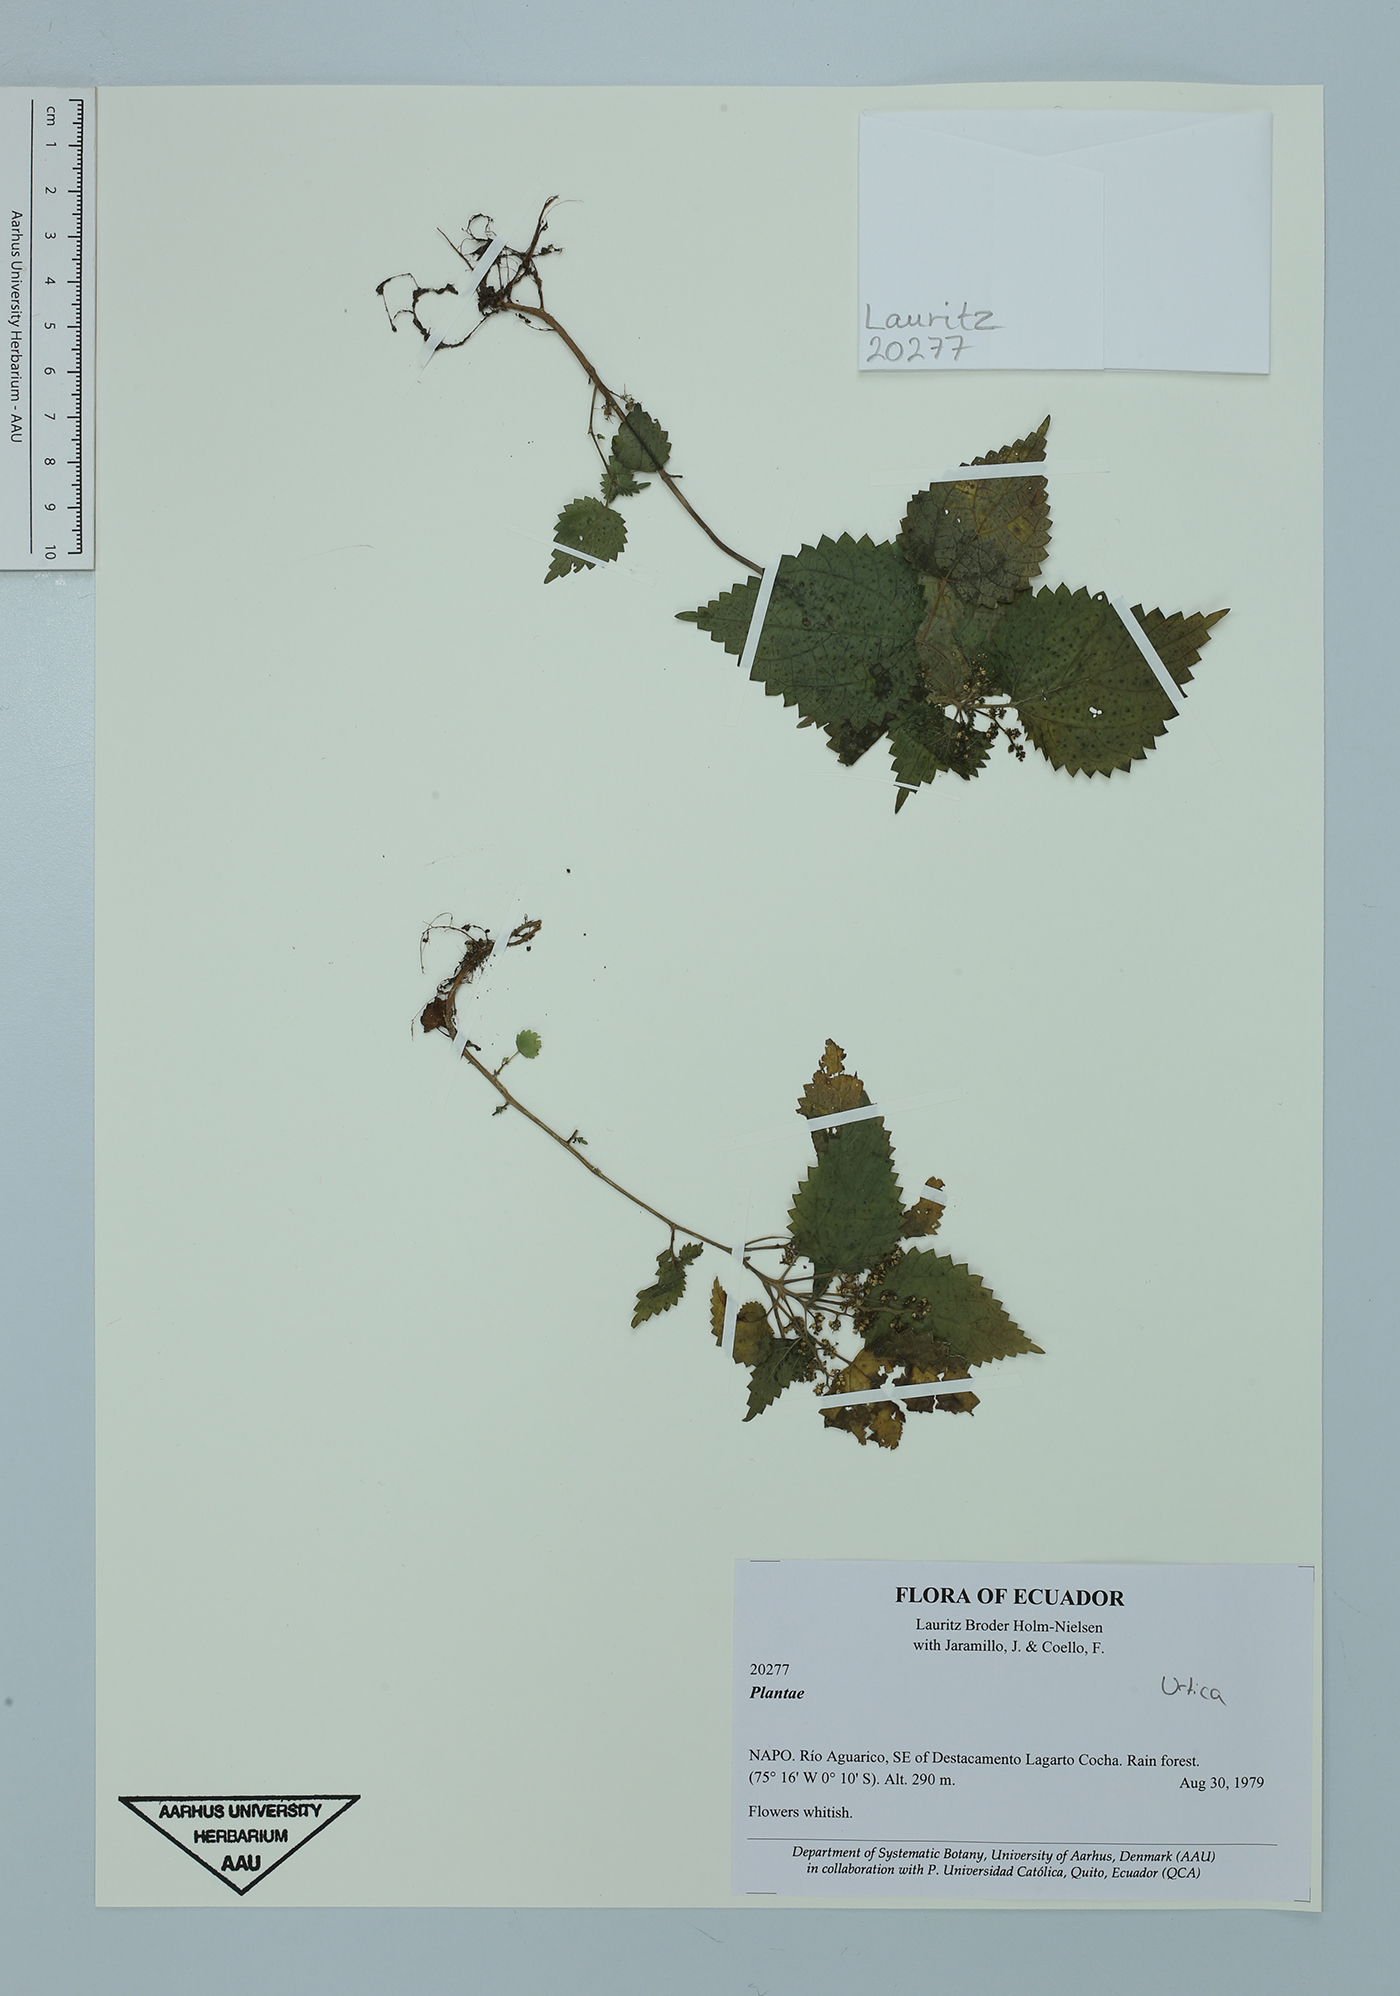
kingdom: Plantae
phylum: Tracheophyta
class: Magnoliopsida
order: Rosales
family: Urticaceae
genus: Urtica
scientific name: Urtica
